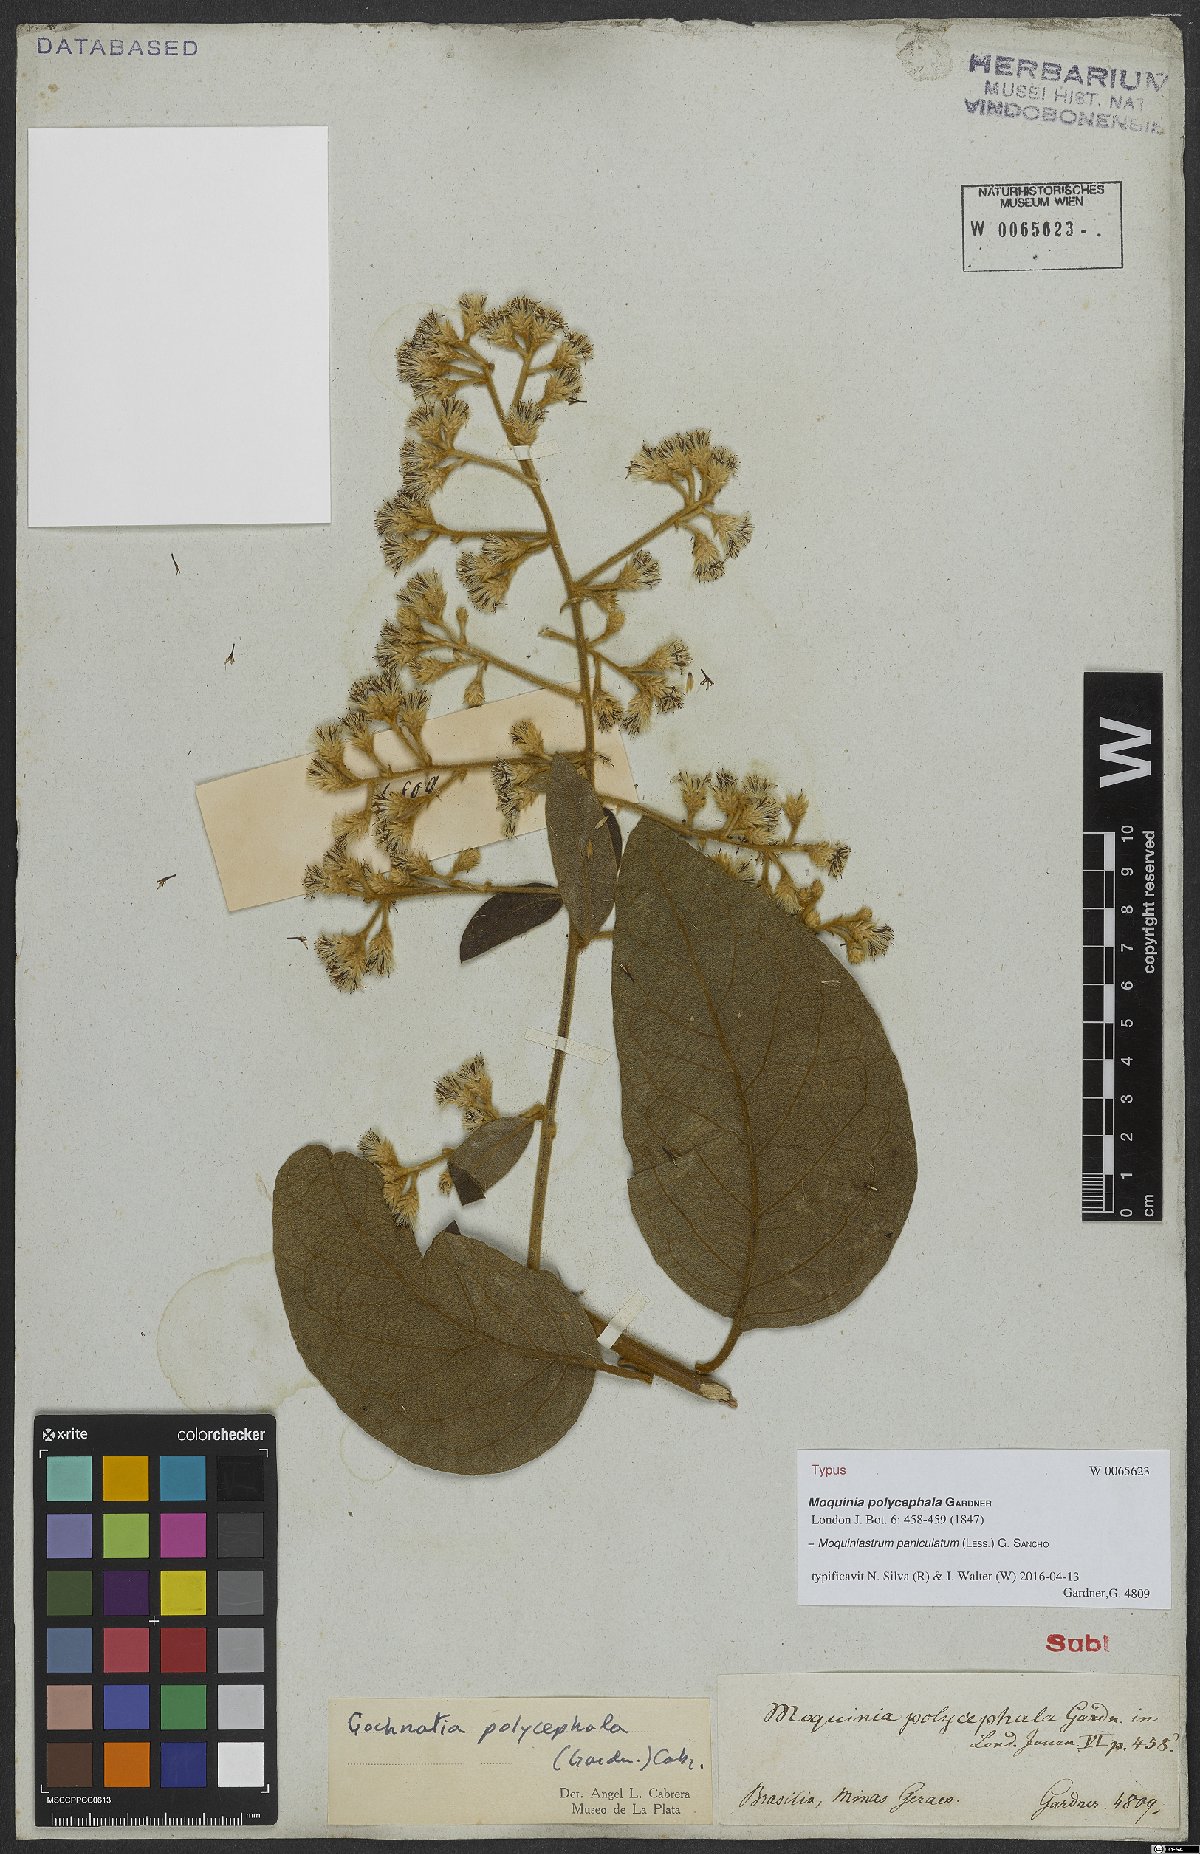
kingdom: Plantae
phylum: Tracheophyta
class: Magnoliopsida
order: Asterales
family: Asteraceae
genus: Moquiniastrum
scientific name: Moquiniastrum paniculatum
